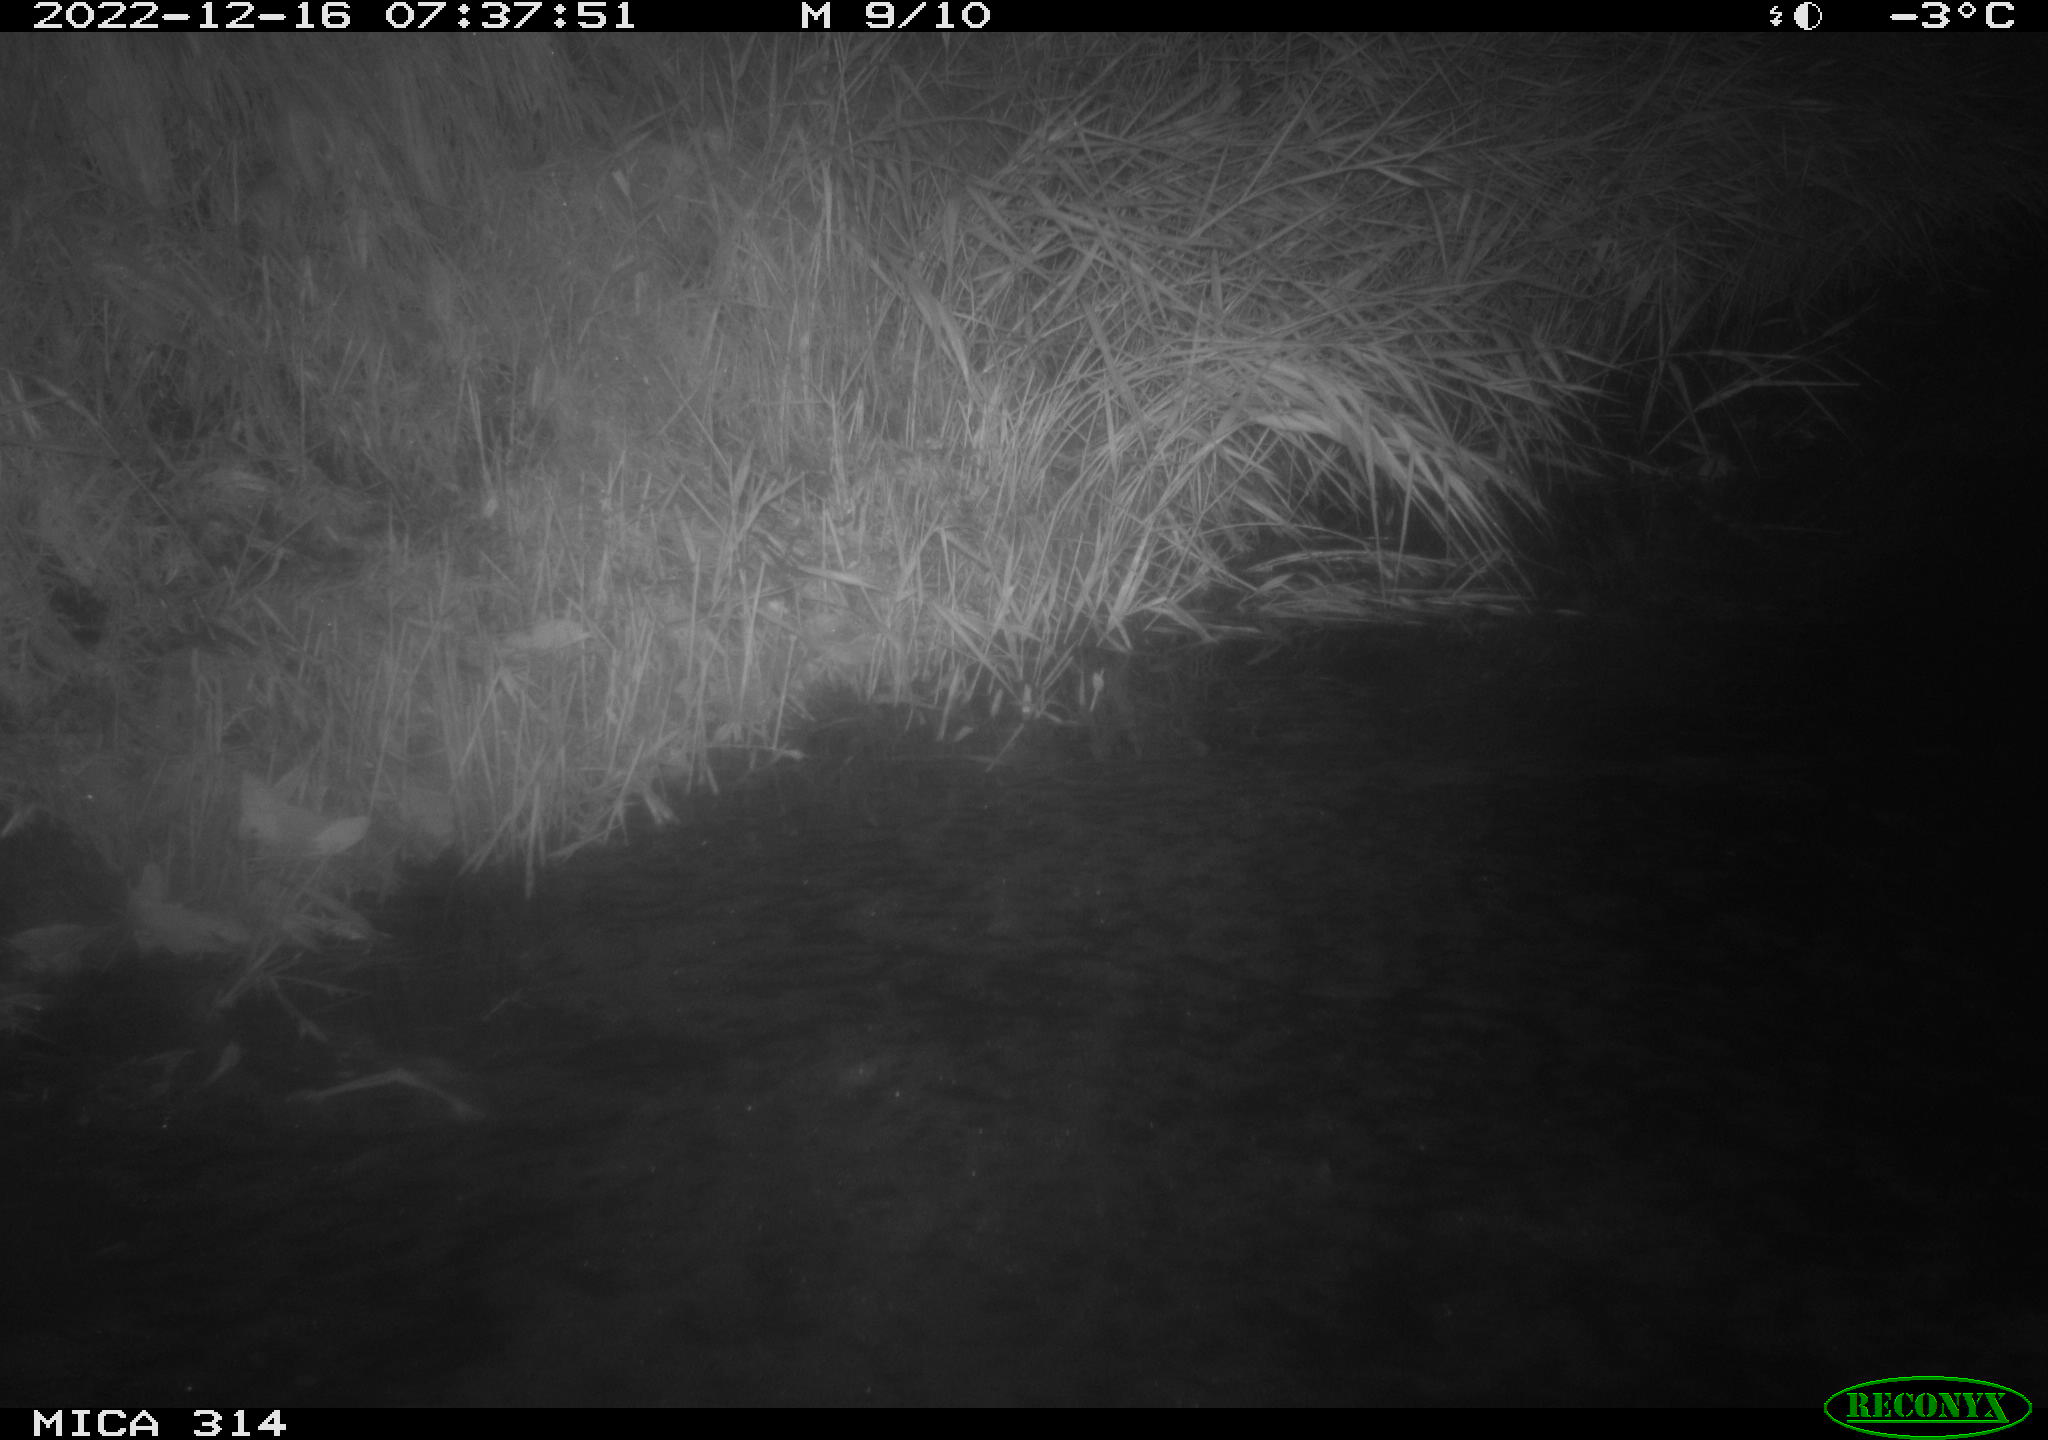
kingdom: Animalia
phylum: Chordata
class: Mammalia
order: Rodentia
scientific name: Rodentia
